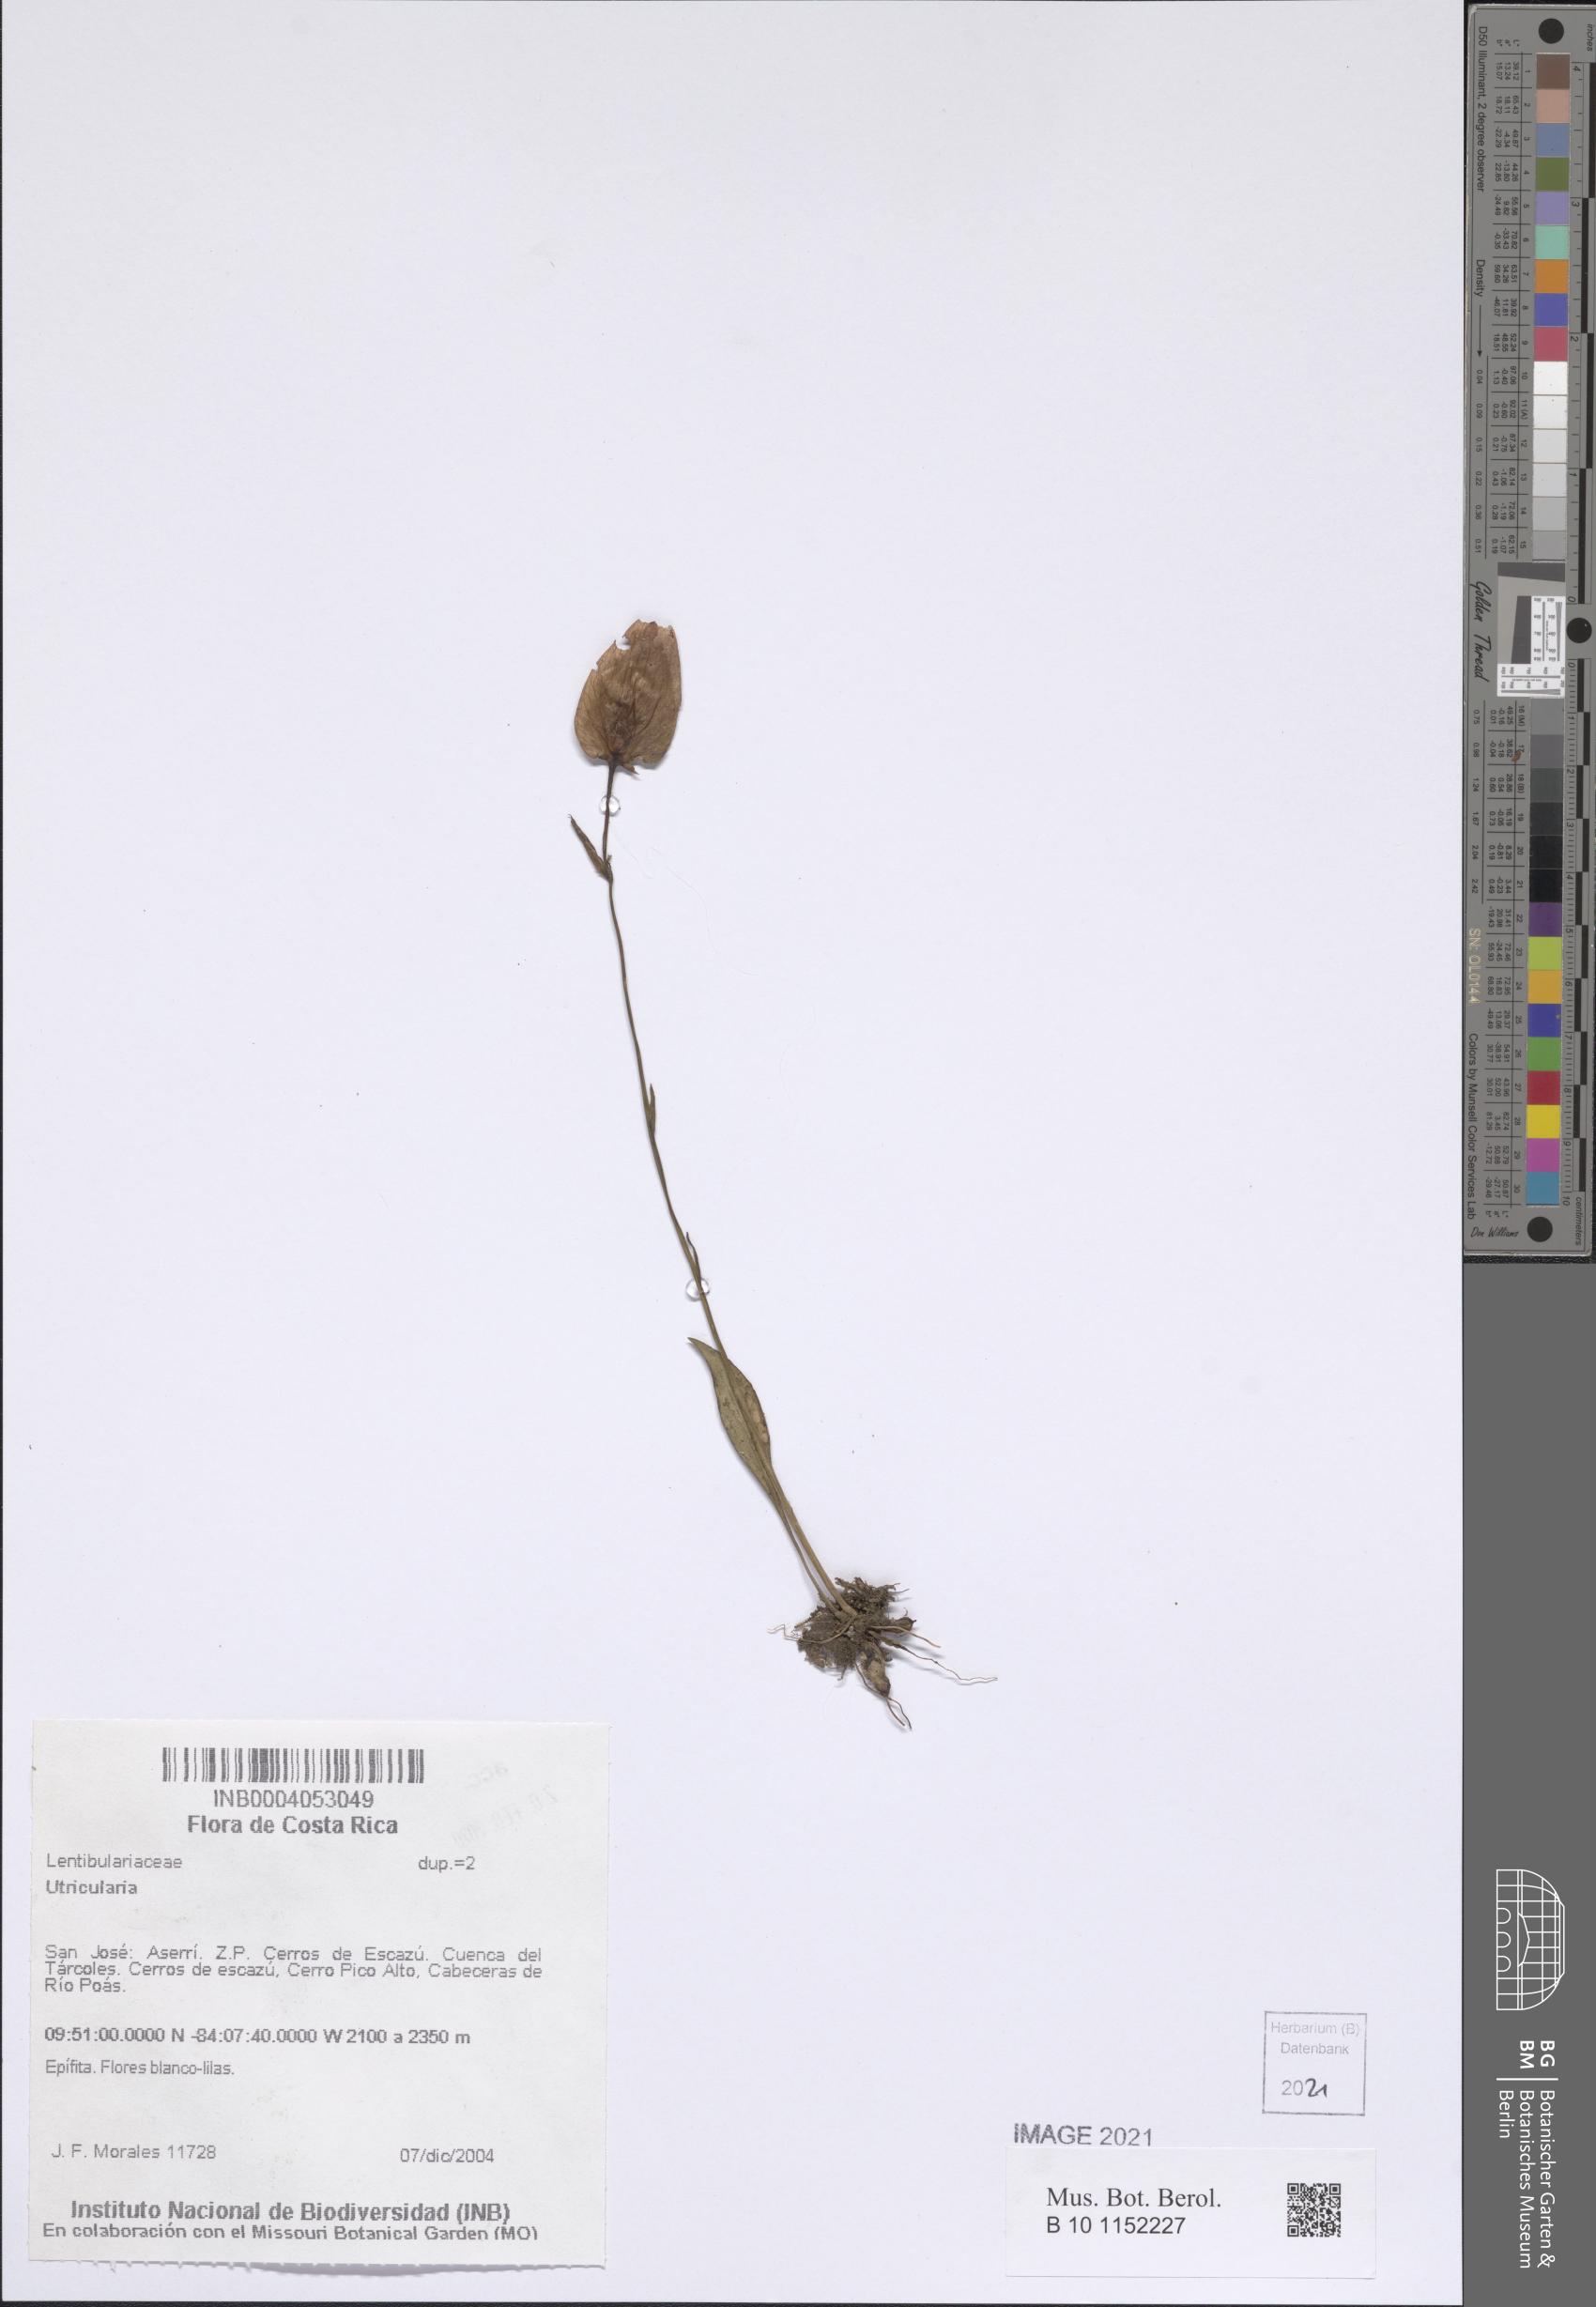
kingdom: Plantae
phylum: Tracheophyta
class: Magnoliopsida
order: Lamiales
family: Lentibulariaceae
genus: Utricularia
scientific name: Utricularia
